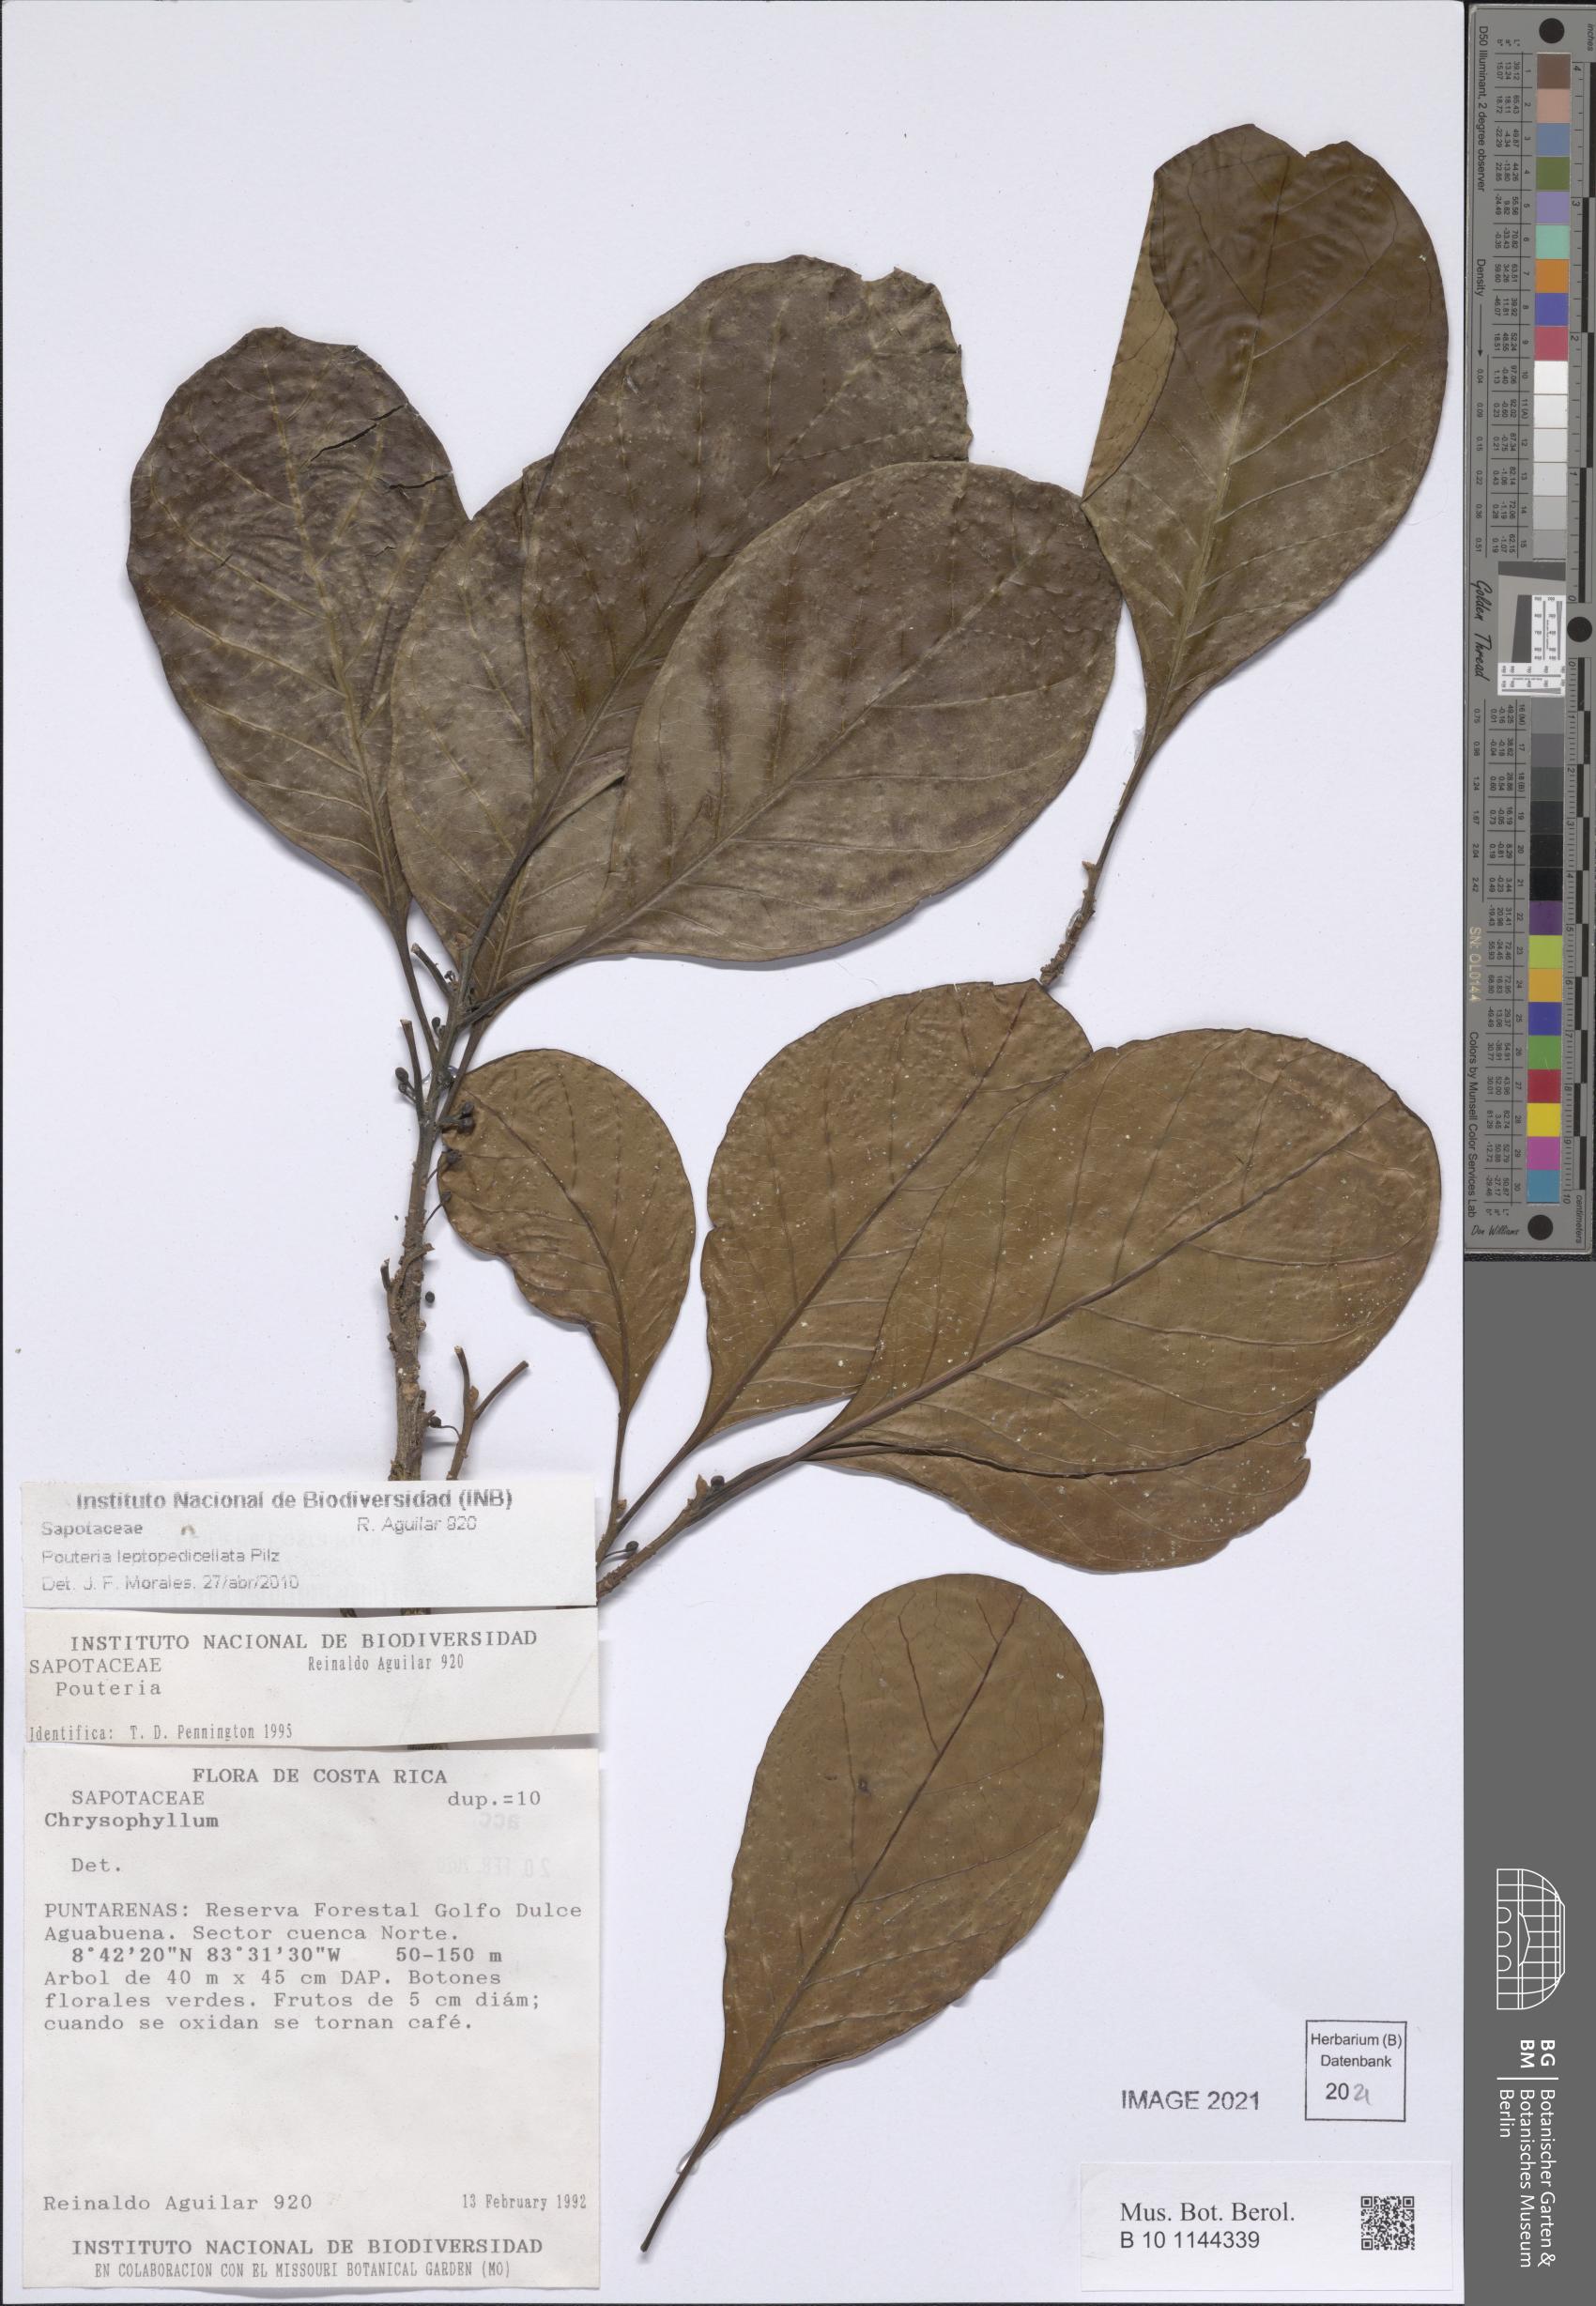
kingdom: Plantae
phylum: Tracheophyta
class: Magnoliopsida
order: Ericales
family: Sapotaceae
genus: Pouteria
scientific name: Pouteria leptopedicellata
